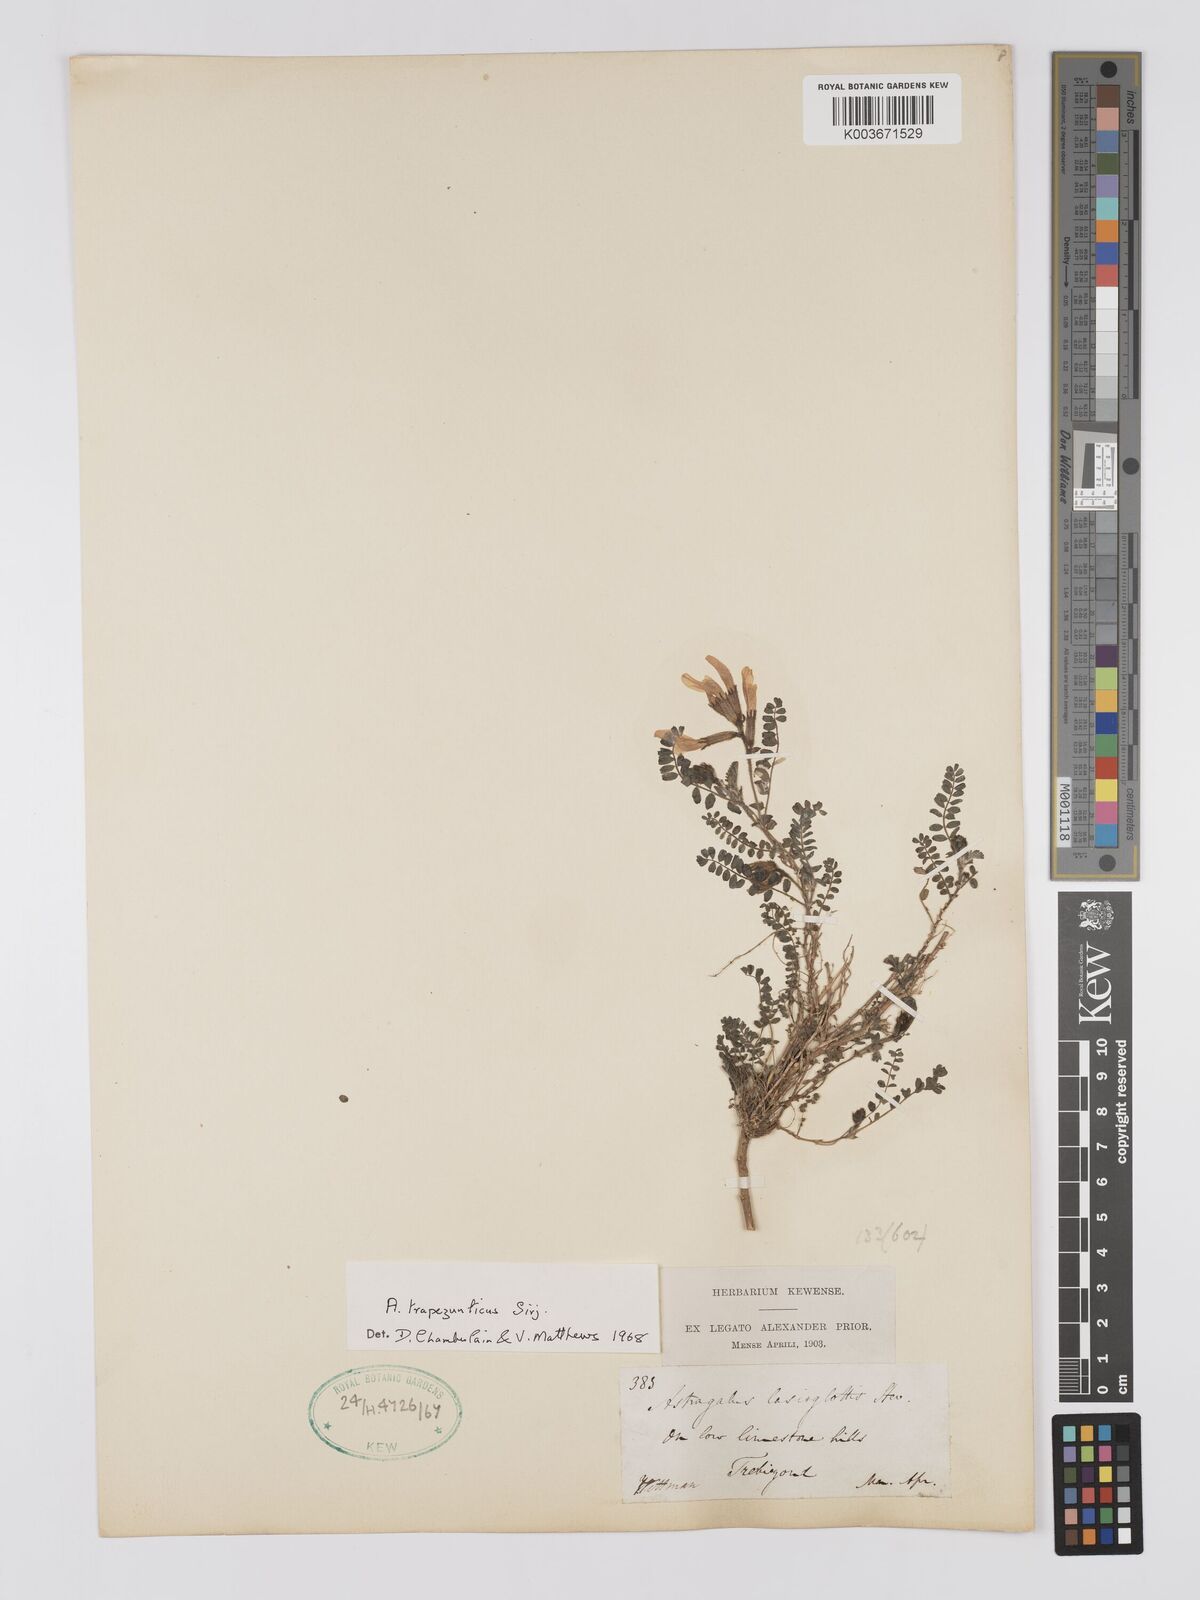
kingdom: Plantae
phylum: Tracheophyta
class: Magnoliopsida
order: Fabales
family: Fabaceae
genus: Astragalus
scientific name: Astragalus viridissimus
